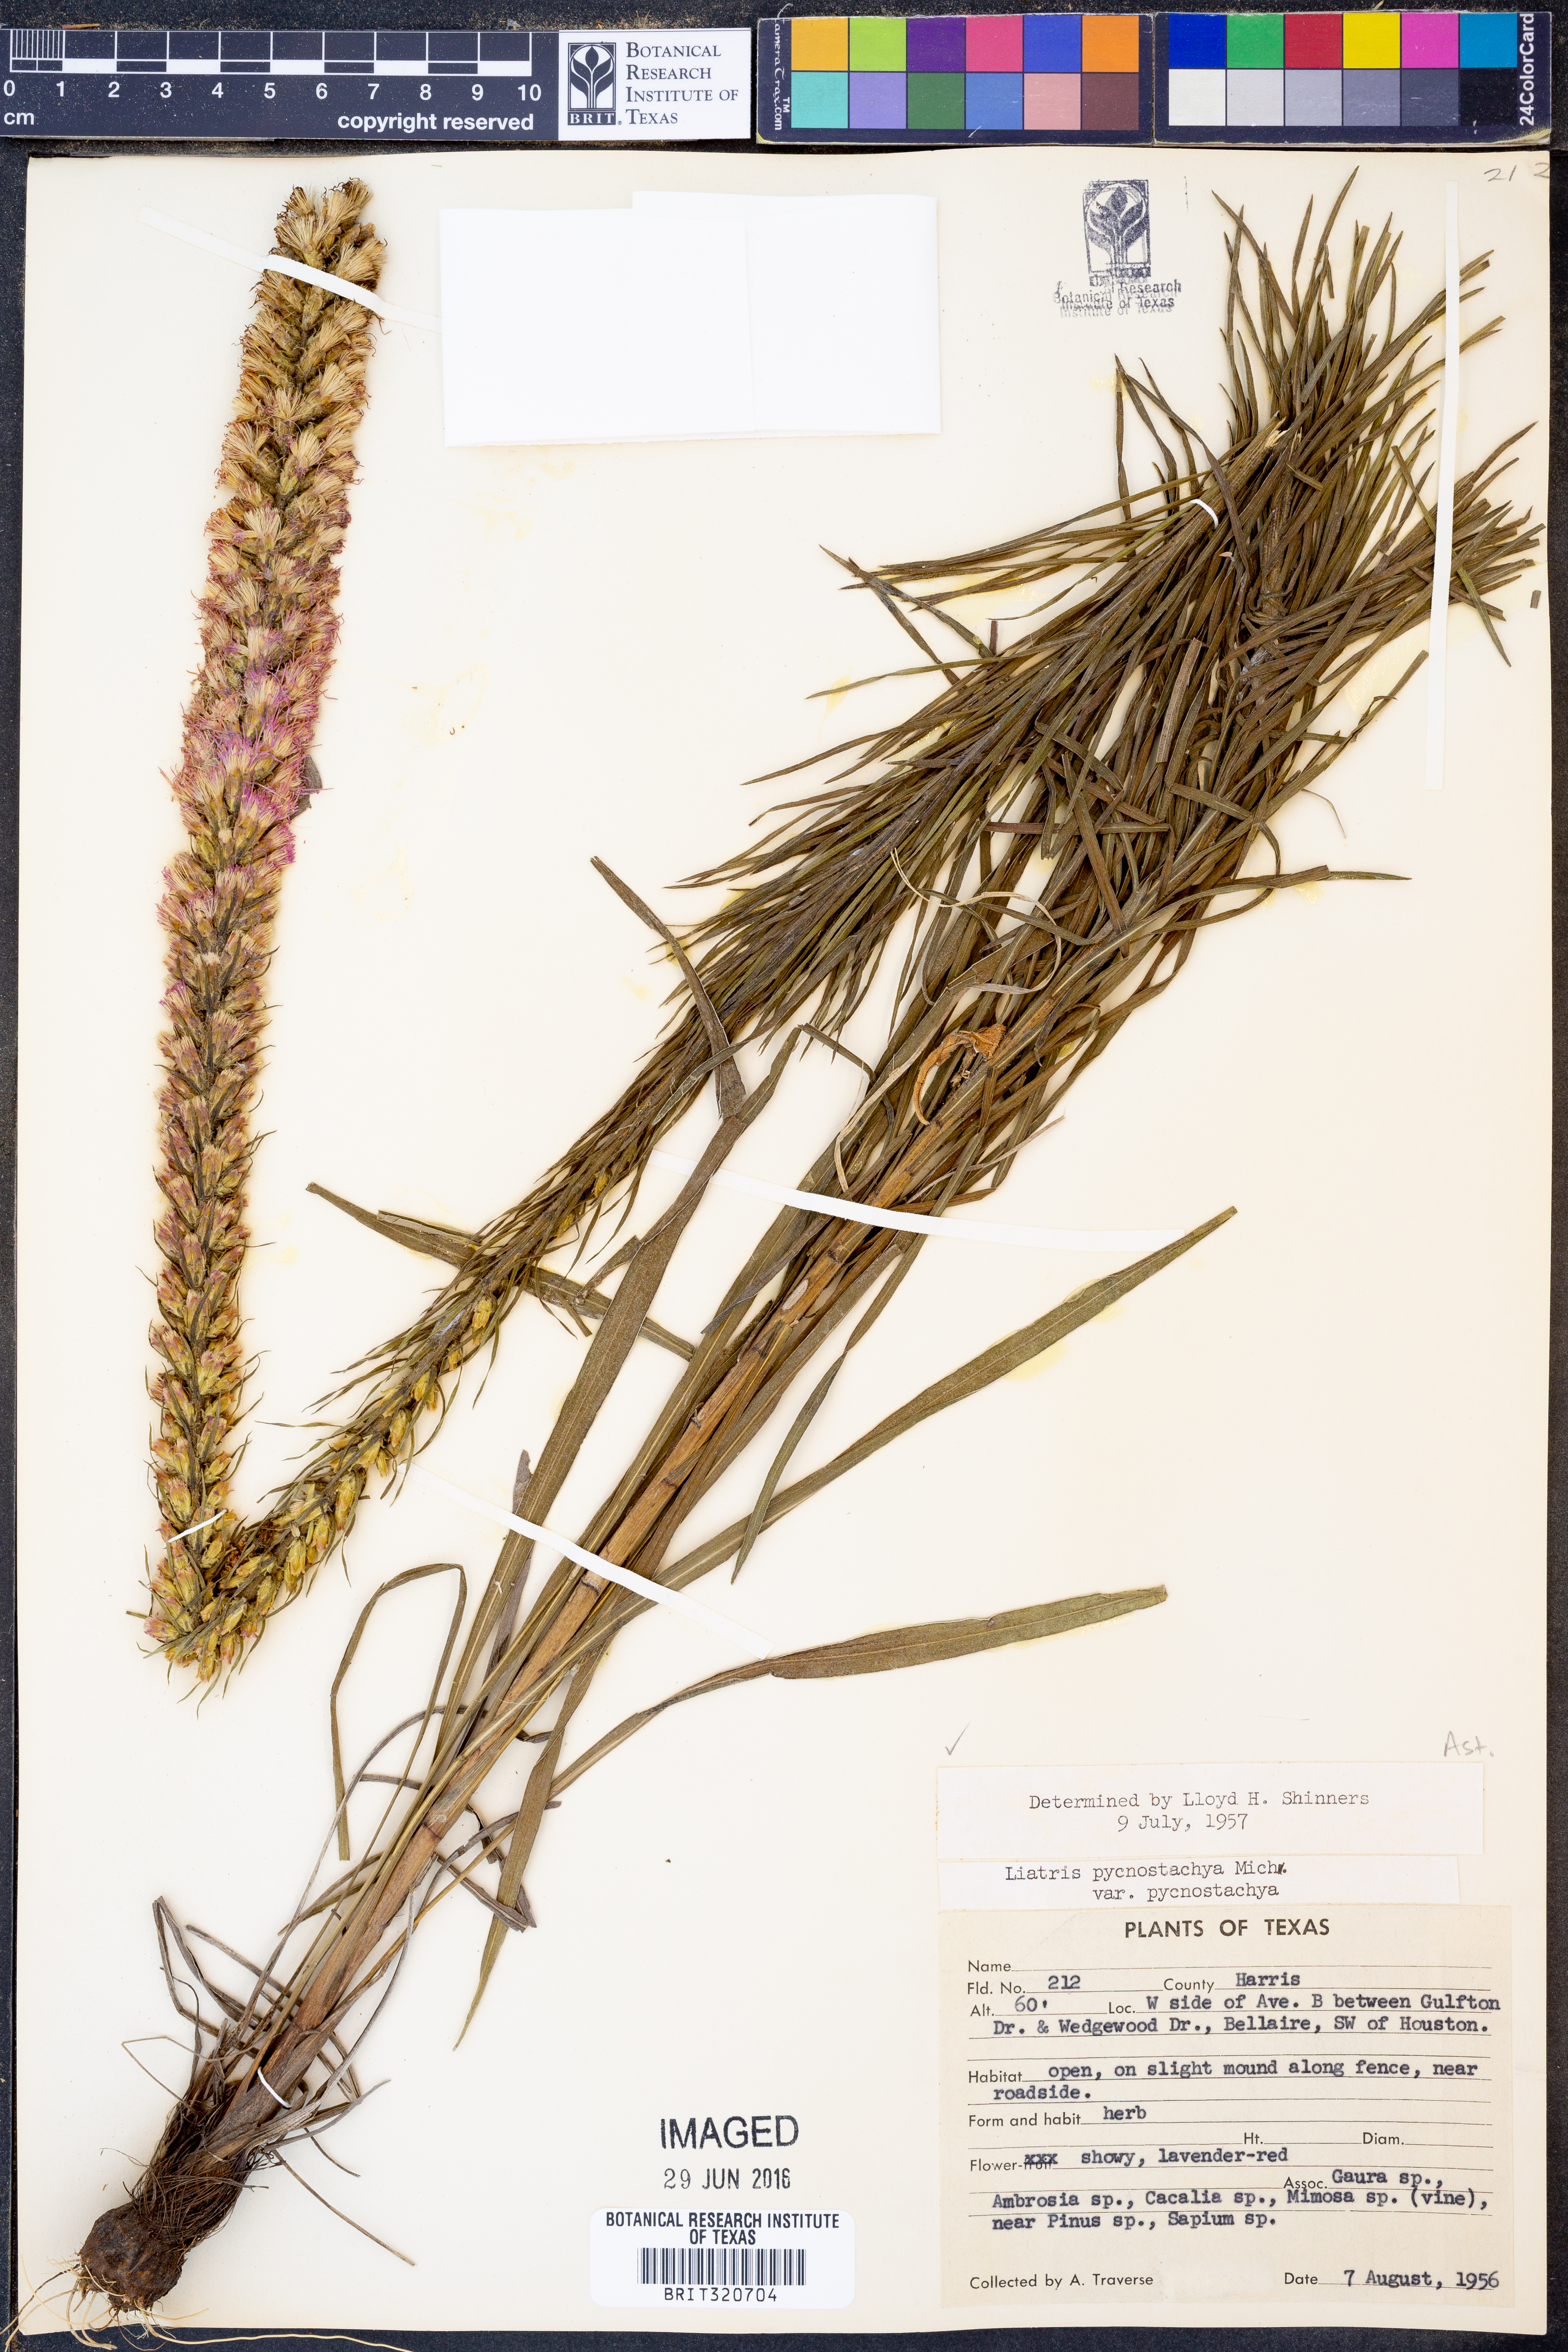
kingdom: Plantae
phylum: Tracheophyta
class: Magnoliopsida
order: Asterales
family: Asteraceae
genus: Liatris
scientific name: Liatris pycnostachya
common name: Cattail gayfeather
